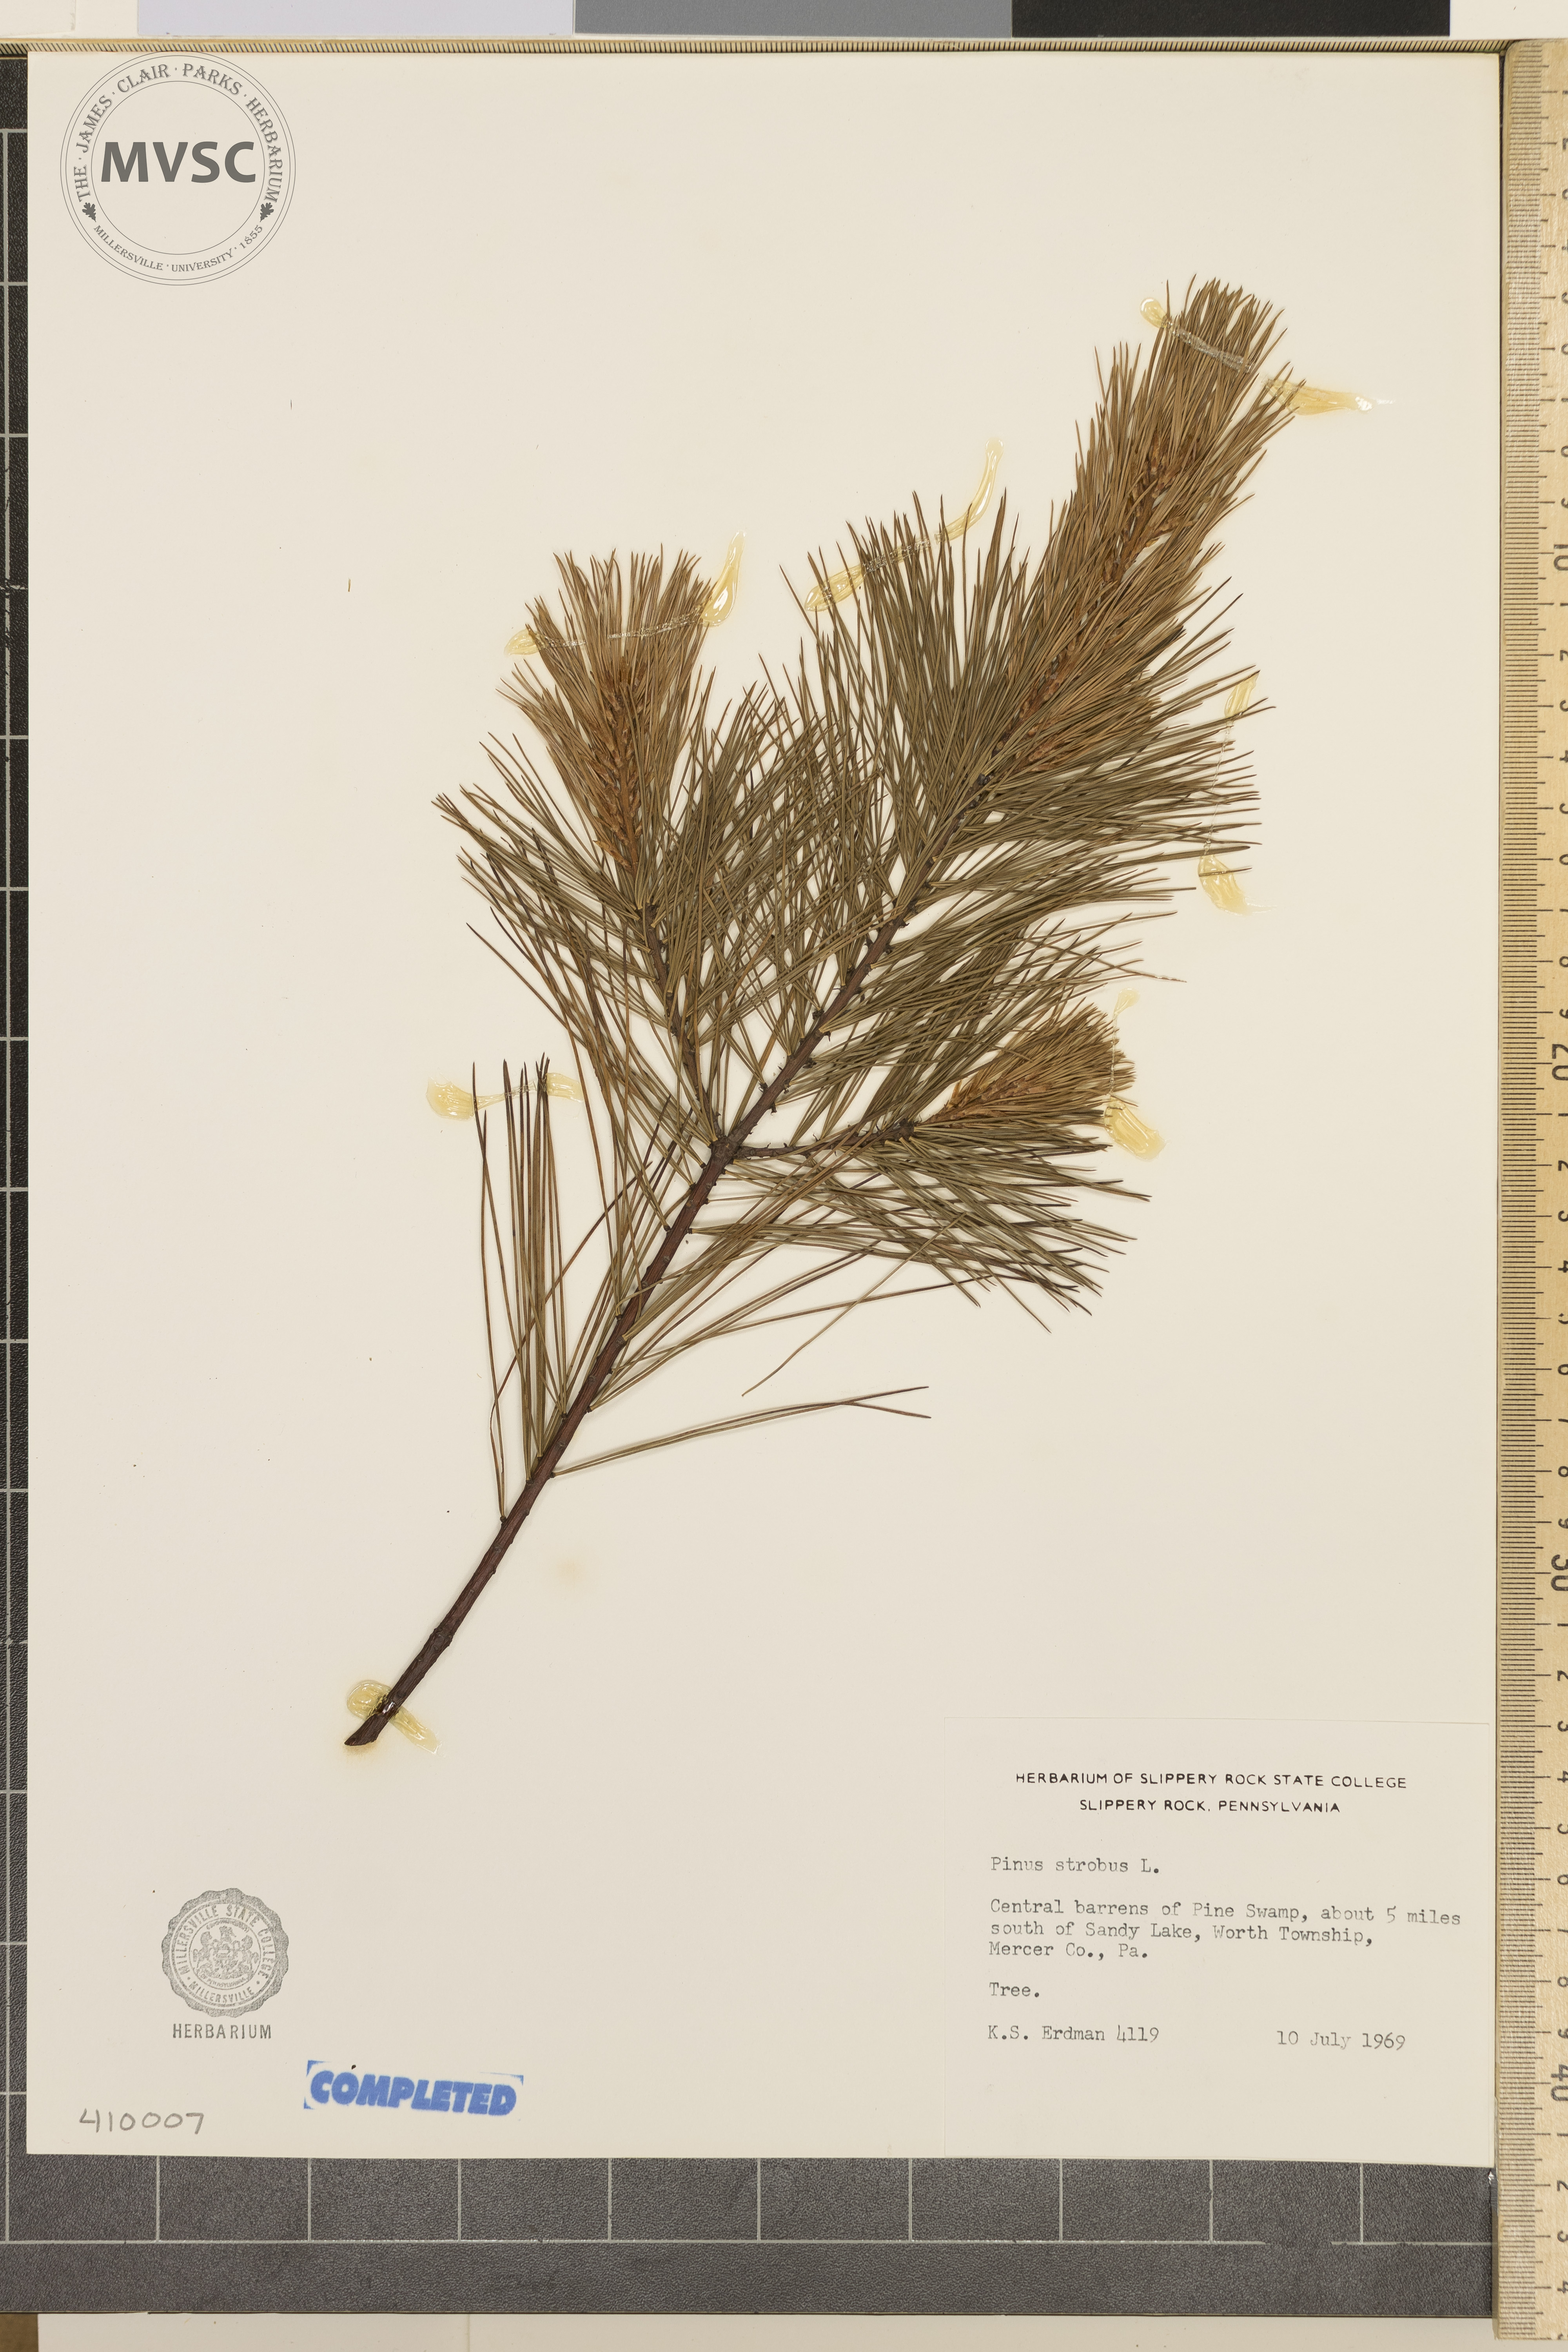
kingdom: Plantae
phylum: Tracheophyta
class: Pinopsida
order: Pinales
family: Pinaceae
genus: Pinus
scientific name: Pinus strobus
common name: Weymouth pine
